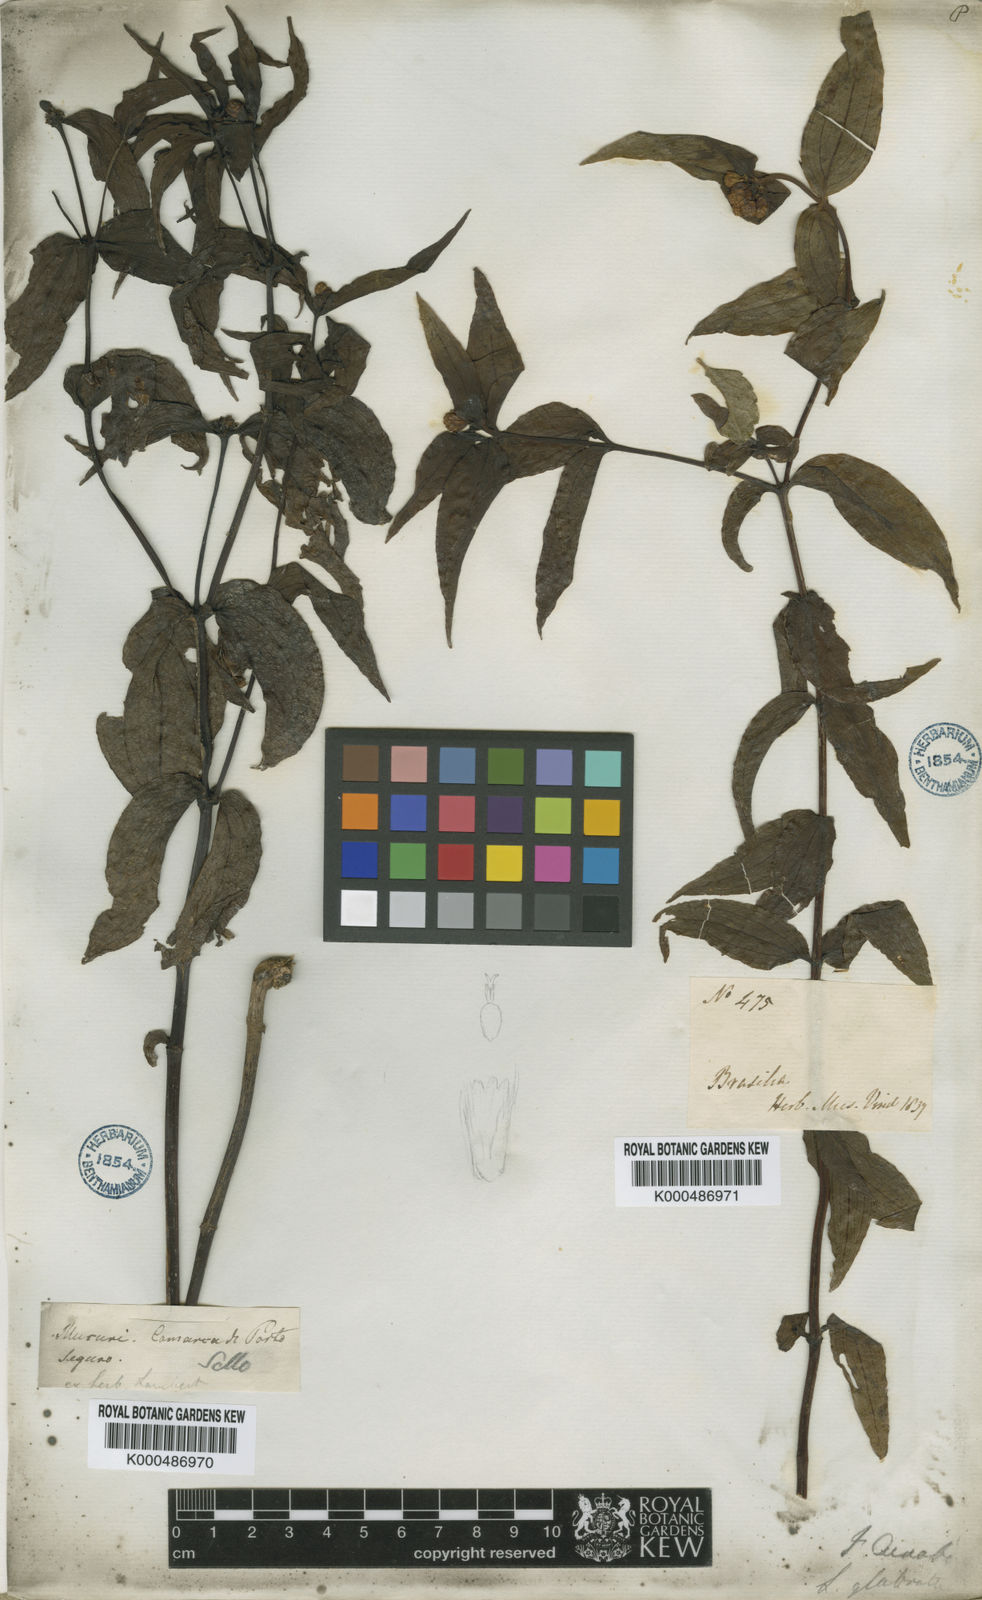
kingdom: Plantae
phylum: Tracheophyta
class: Magnoliopsida
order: Asterales
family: Asteraceae
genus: Ichthyothere
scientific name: Ichthyothere terminalis
